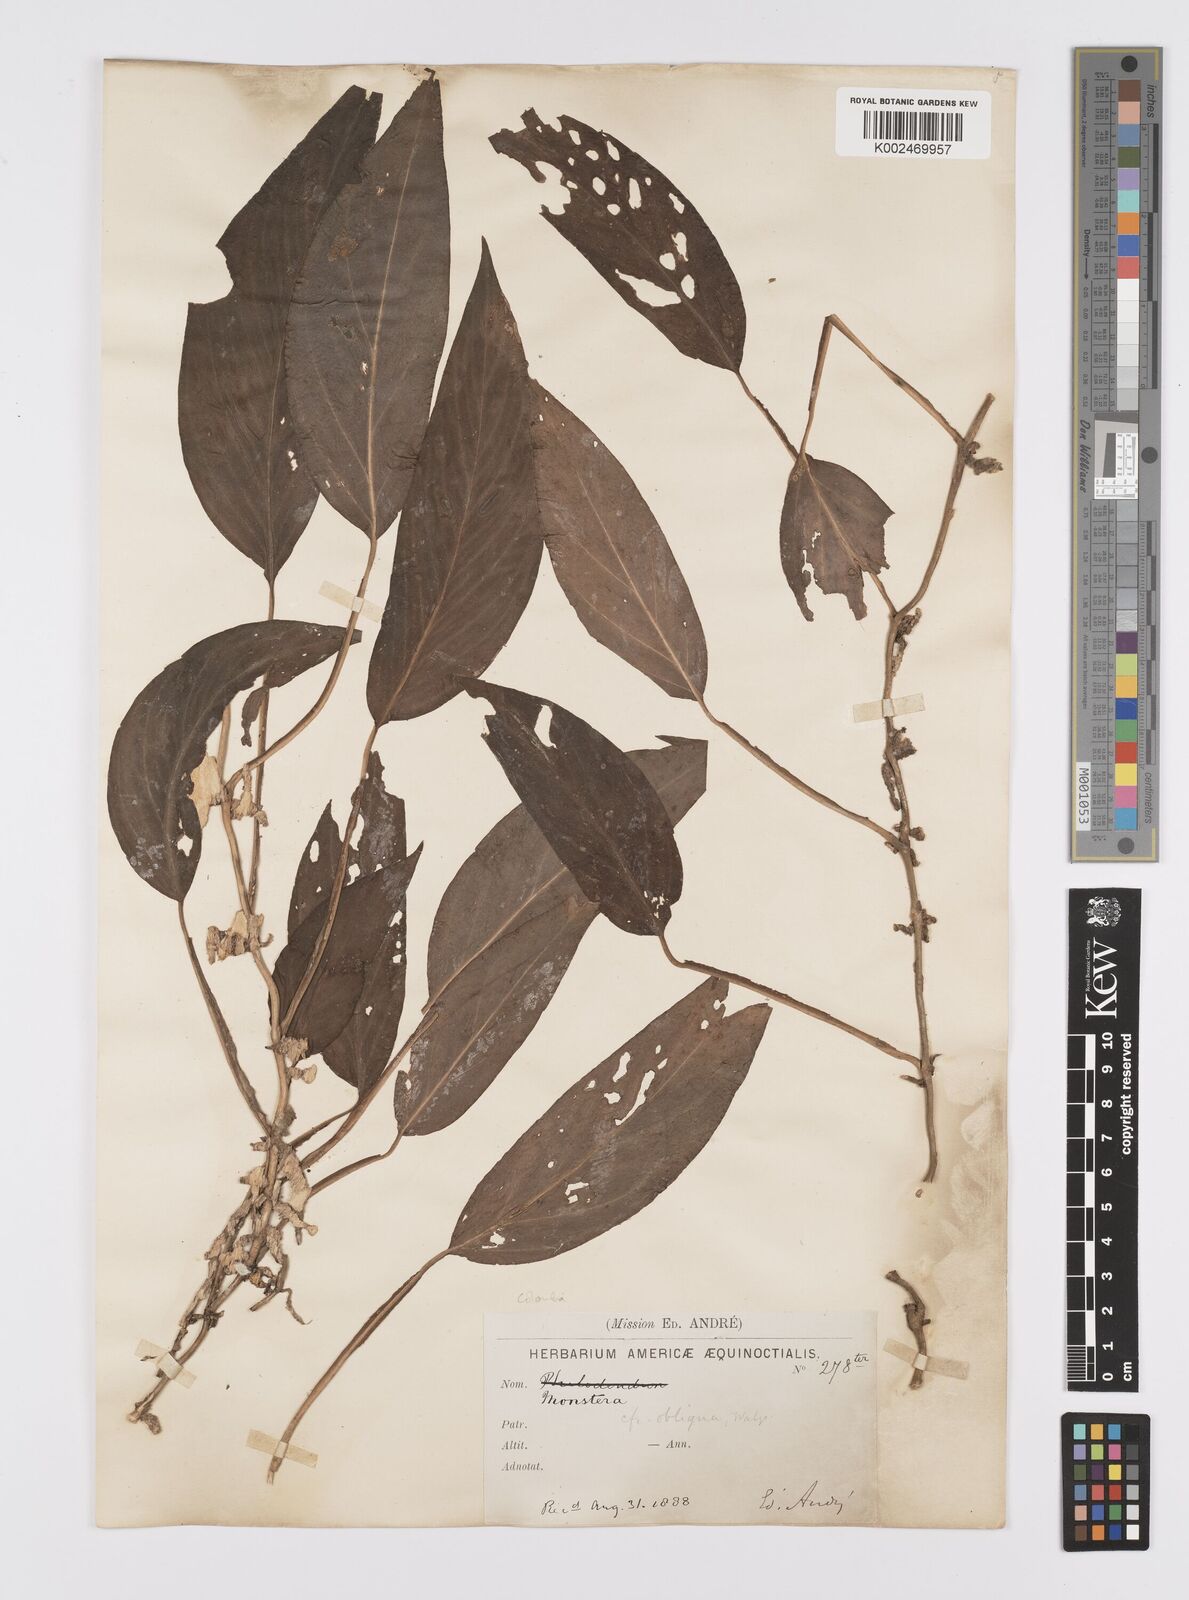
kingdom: Plantae
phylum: Tracheophyta
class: Liliopsida
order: Alismatales
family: Araceae
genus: Monstera
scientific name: Monstera
